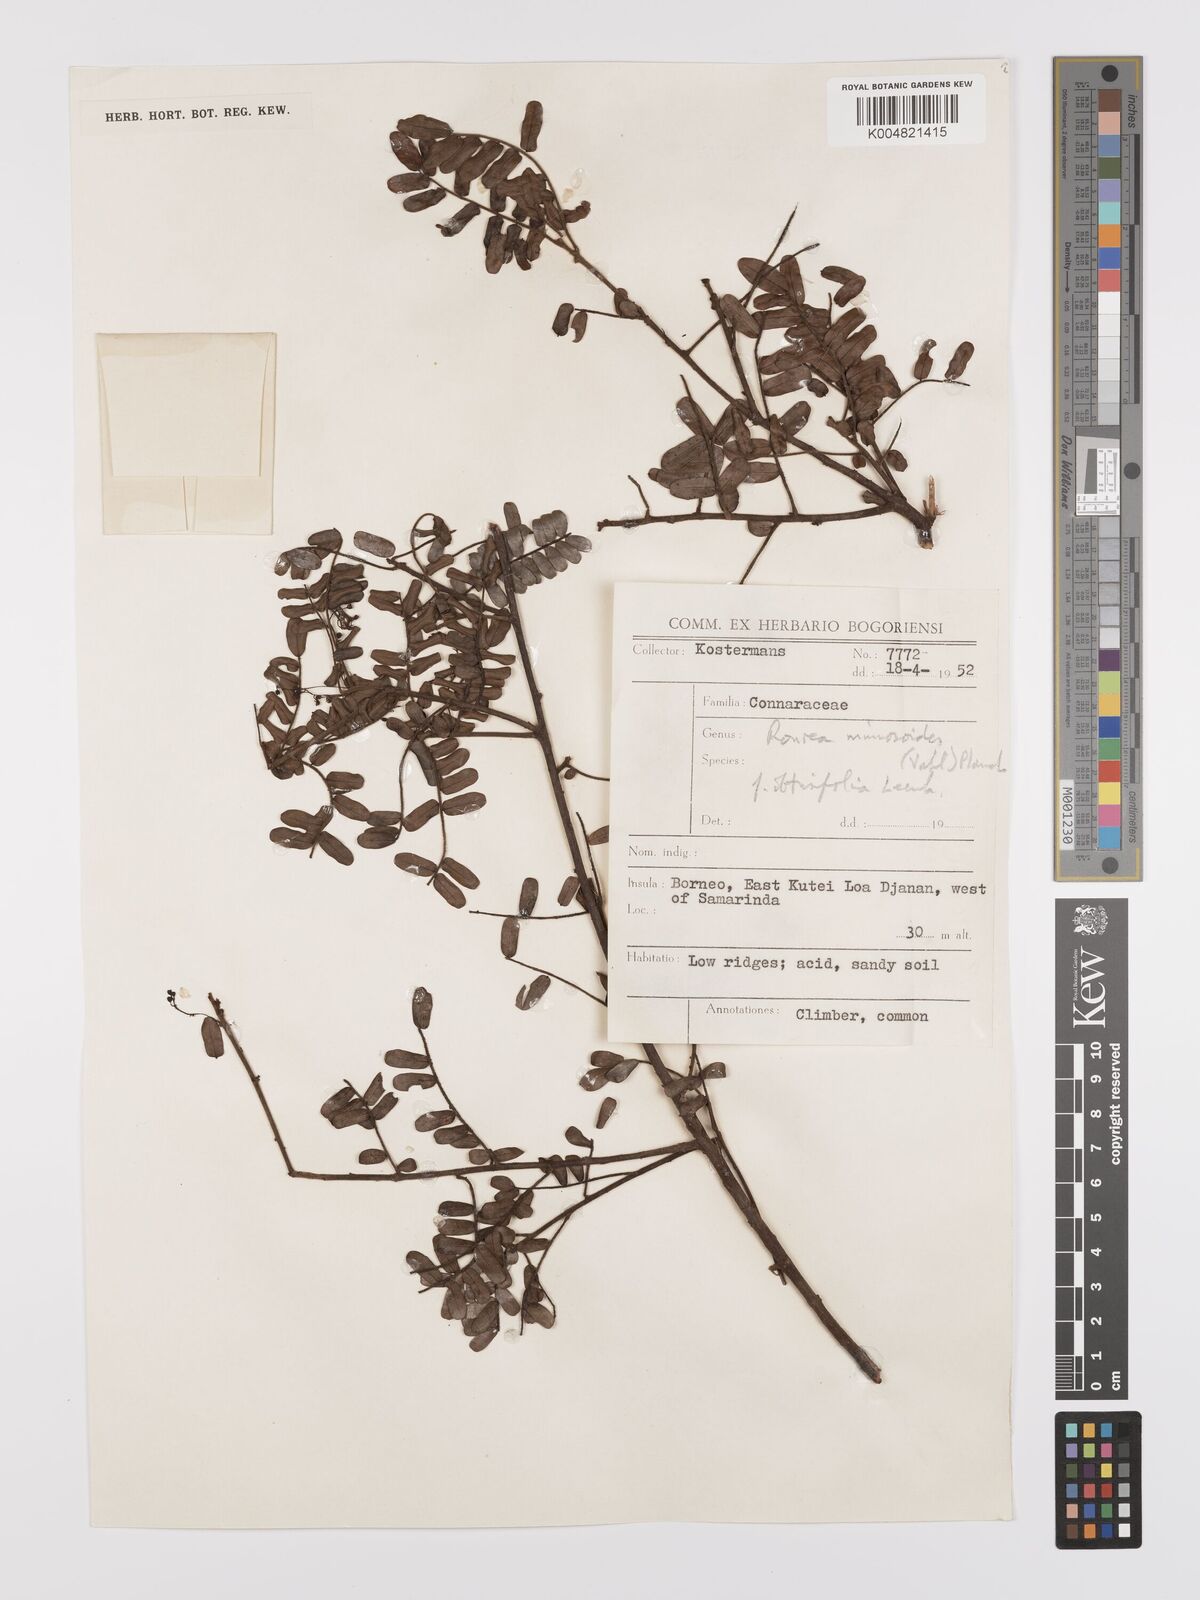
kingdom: Plantae
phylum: Tracheophyta
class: Magnoliopsida
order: Oxalidales
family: Connaraceae
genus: Rourea
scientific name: Rourea mimosoides
